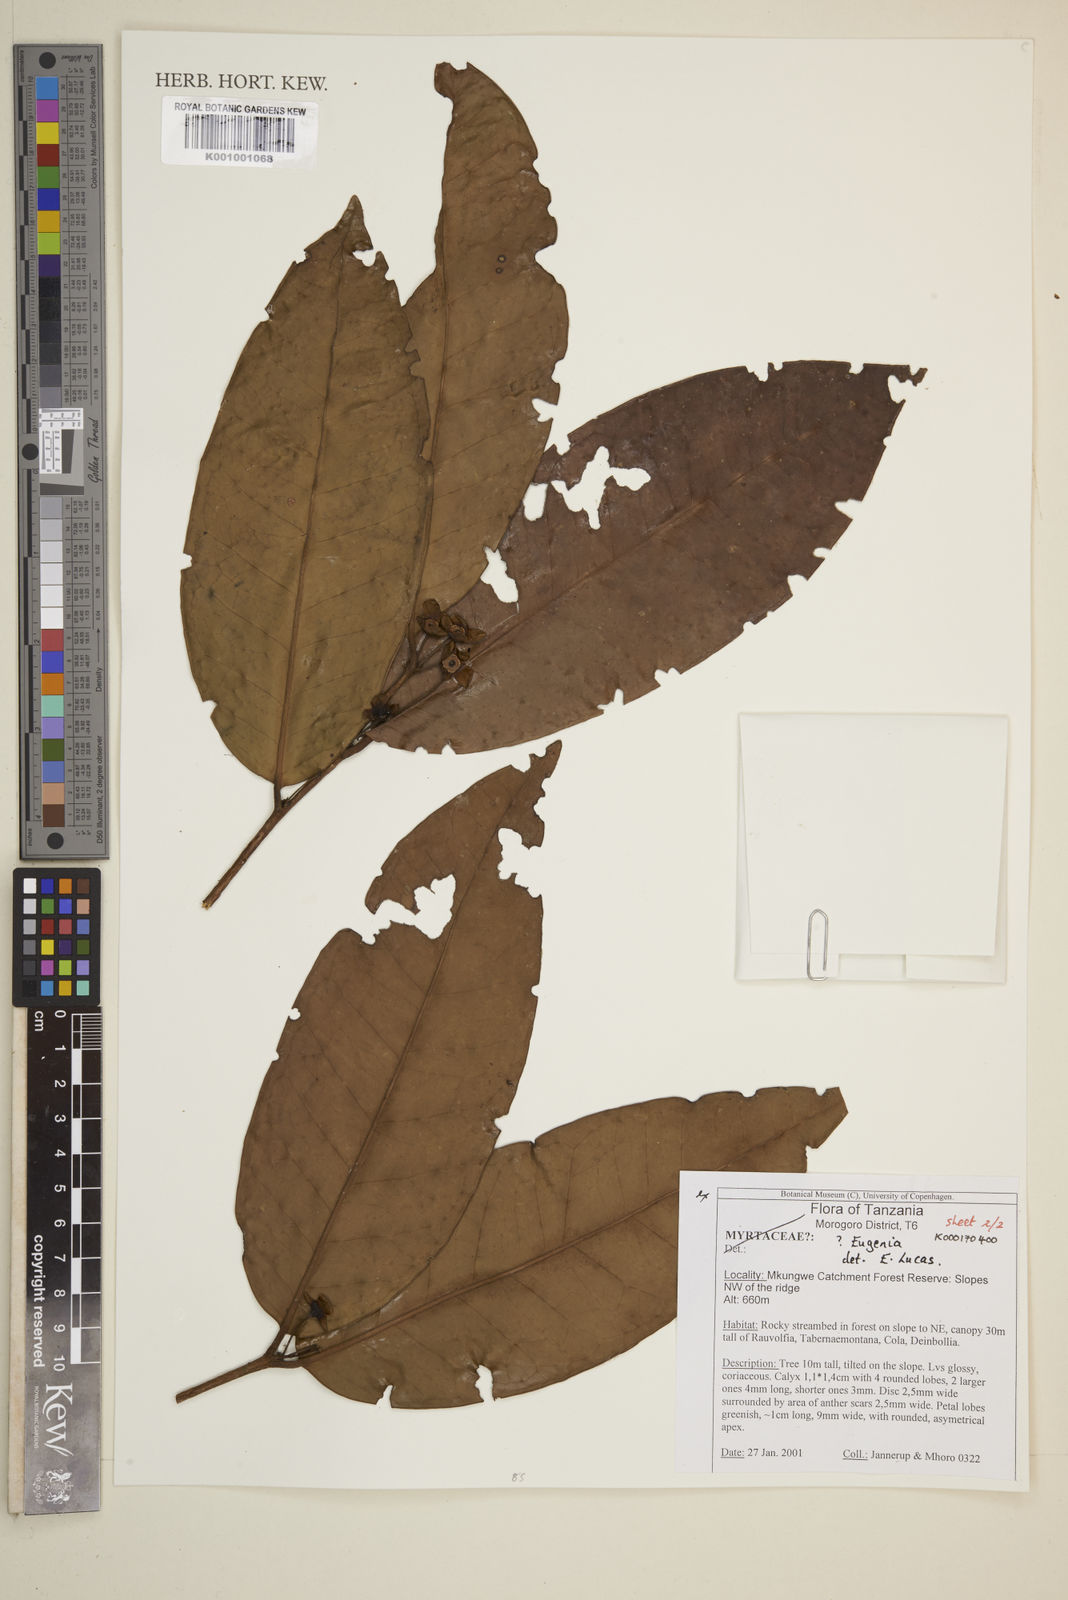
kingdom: Plantae
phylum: Tracheophyta
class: Magnoliopsida
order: Myrtales
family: Myrtaceae
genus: Eugenia
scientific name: Eugenia
